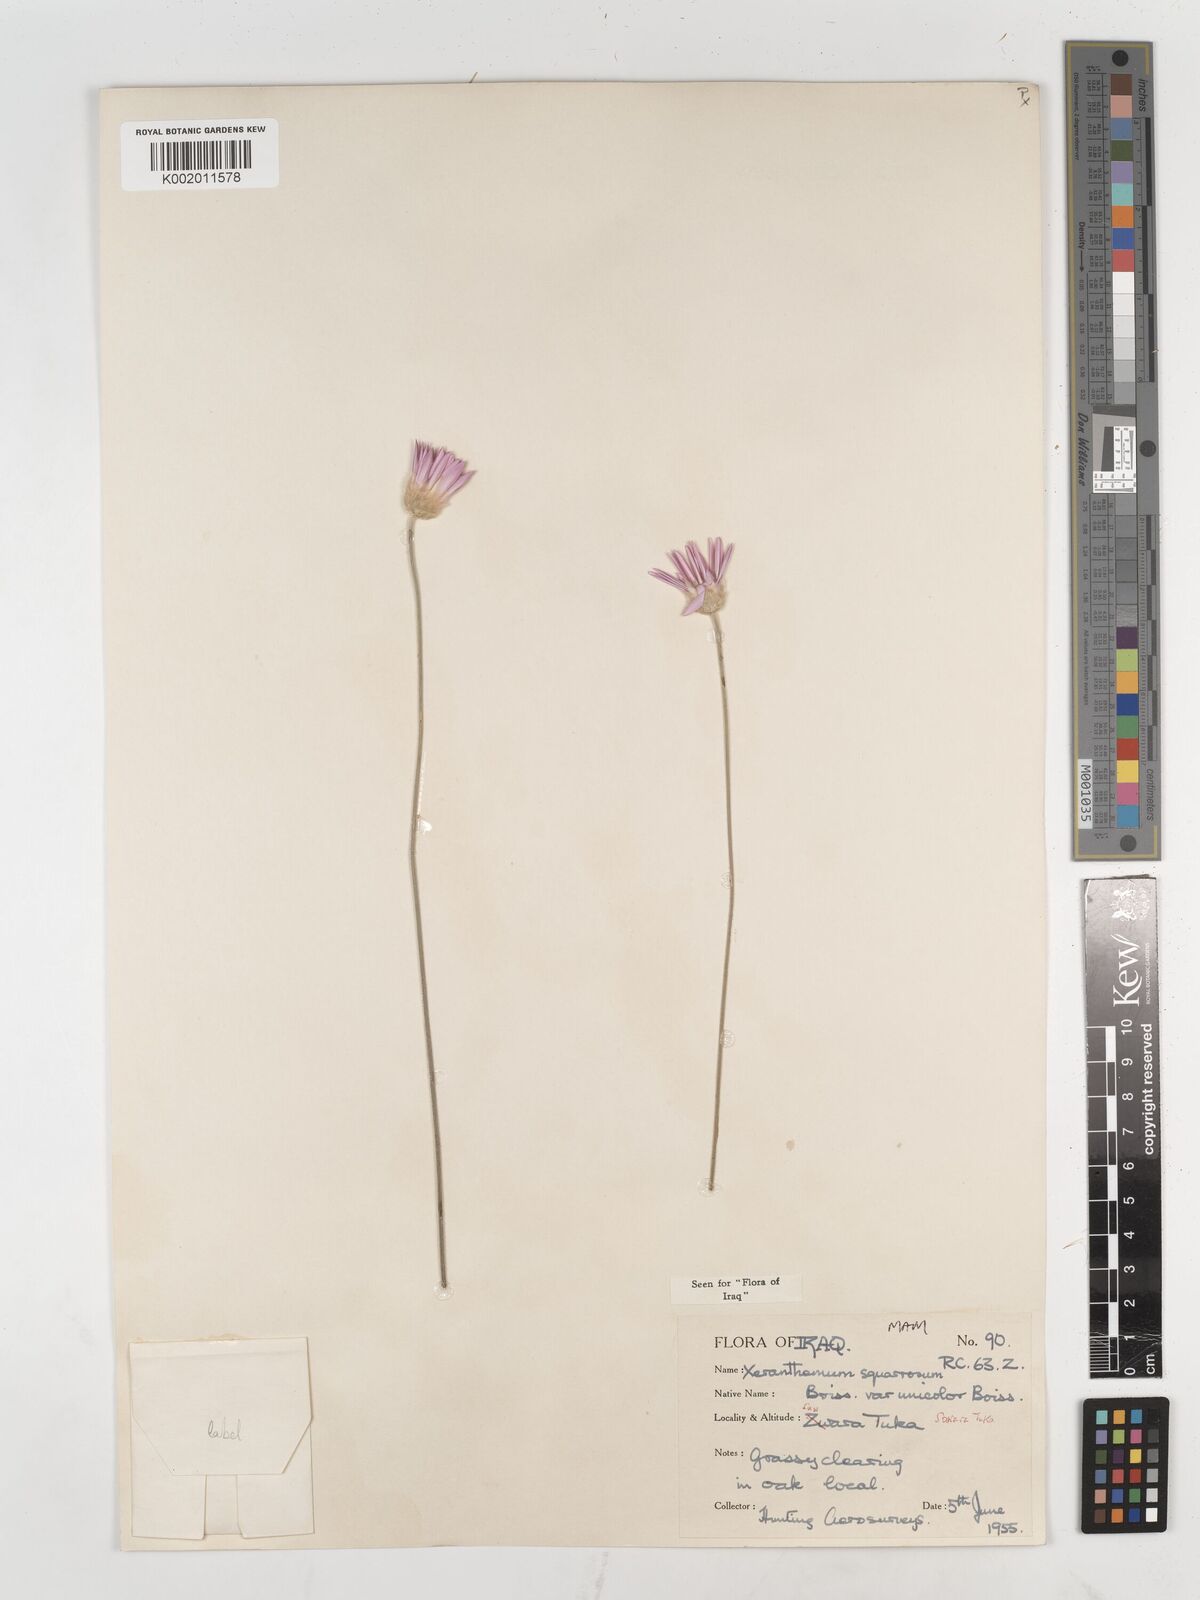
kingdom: Plantae
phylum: Tracheophyta
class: Magnoliopsida
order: Asterales
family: Asteraceae
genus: Xeranthemum
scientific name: Xeranthemum annuum
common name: Immortelle
